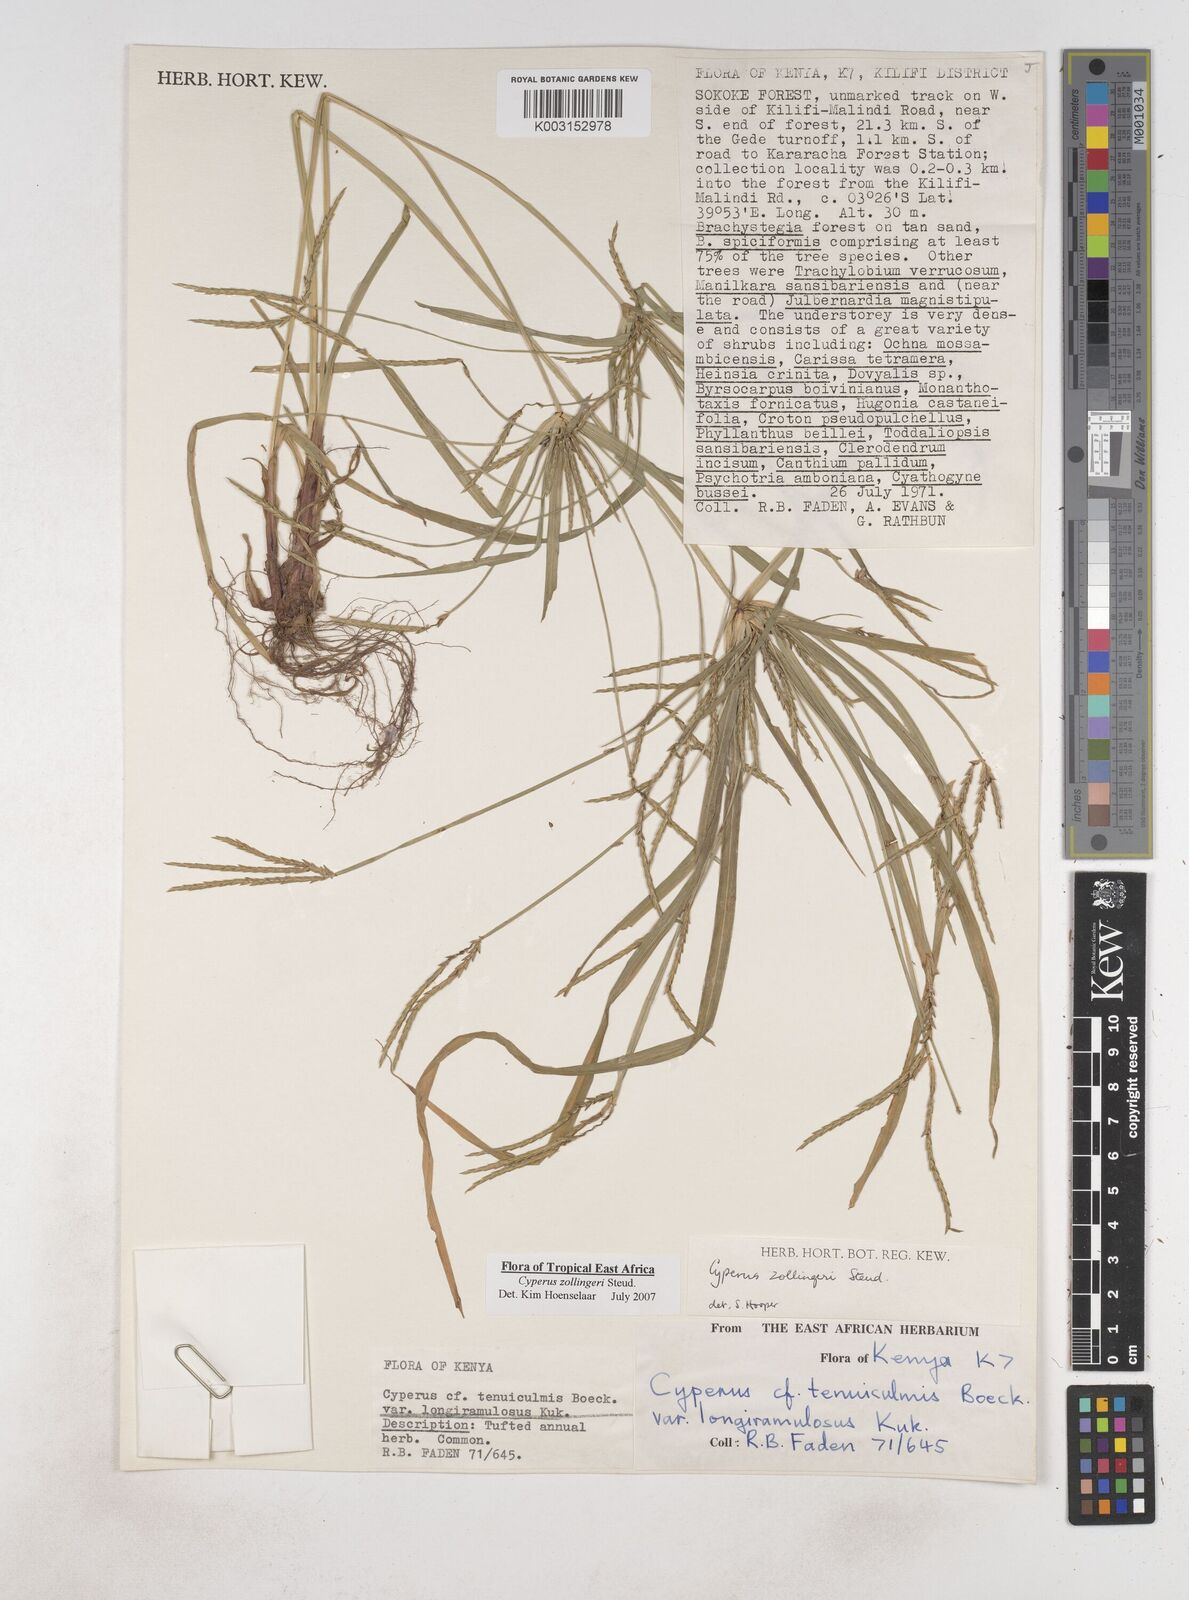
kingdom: Plantae
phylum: Tracheophyta
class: Liliopsida
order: Poales
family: Cyperaceae
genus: Cyperus
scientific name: Cyperus zollingerioides
